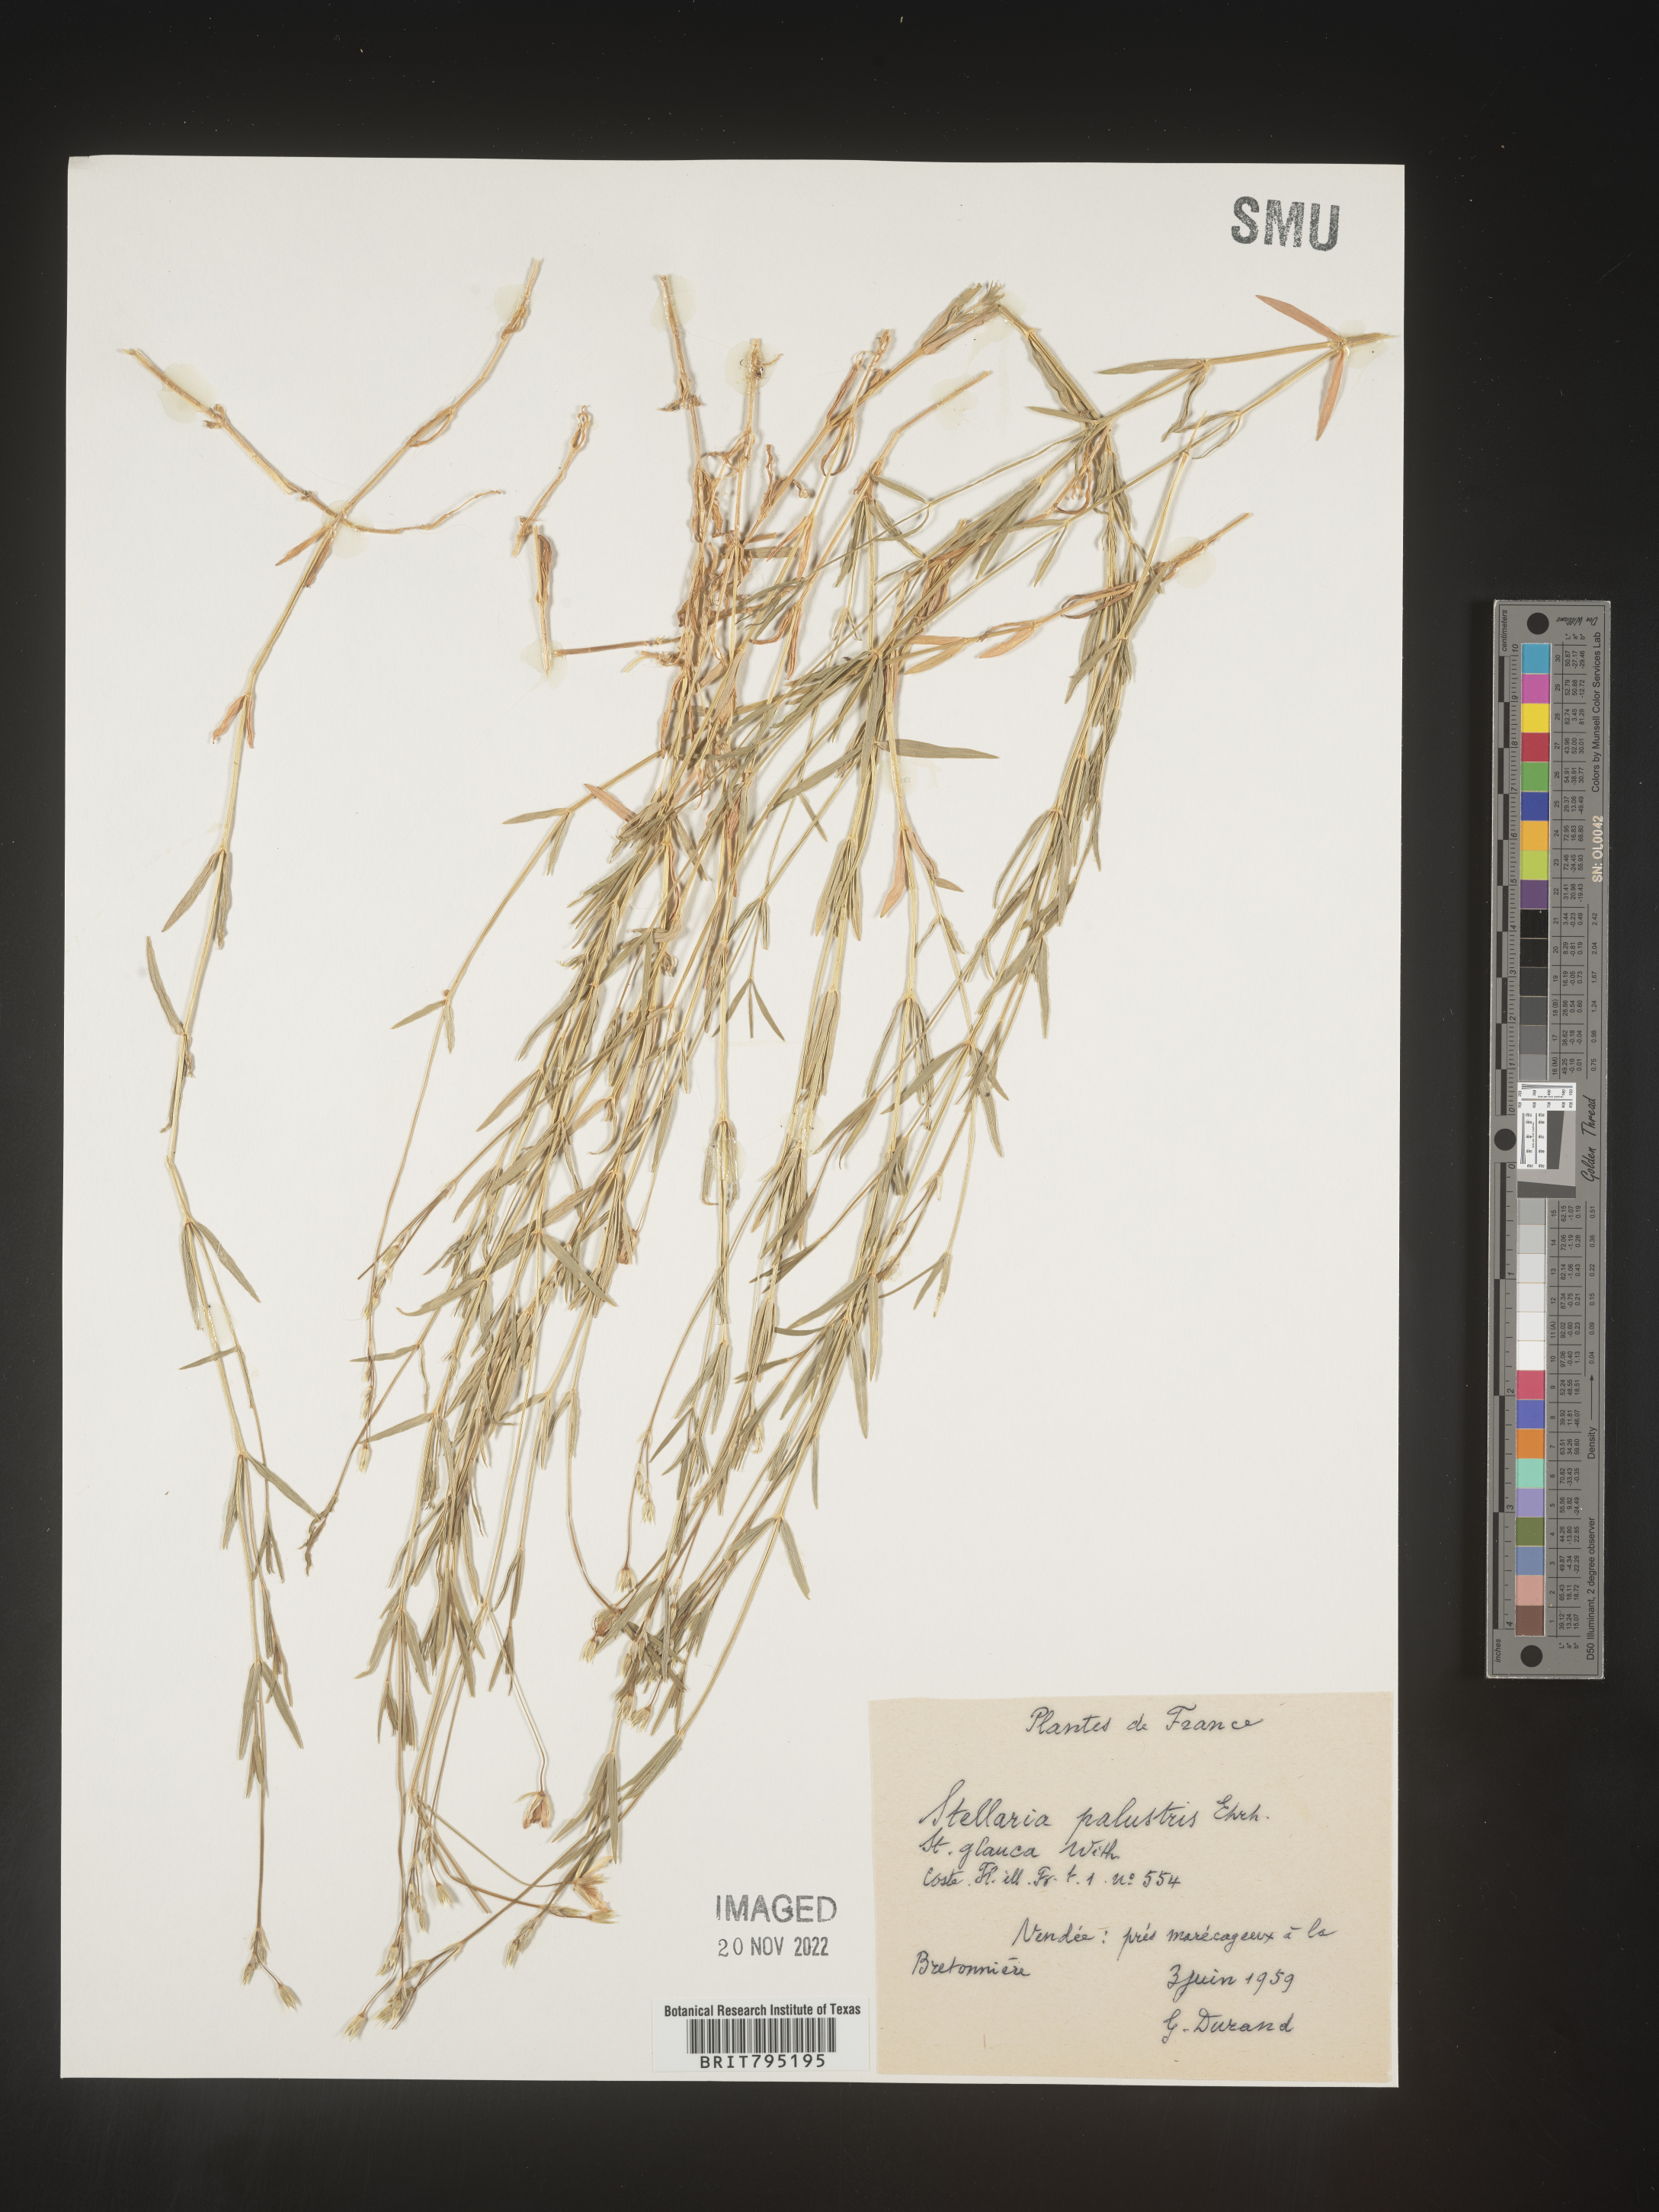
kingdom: Plantae
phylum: Tracheophyta
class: Magnoliopsida
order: Caryophyllales
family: Caryophyllaceae
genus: Stellaria
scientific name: Stellaria
